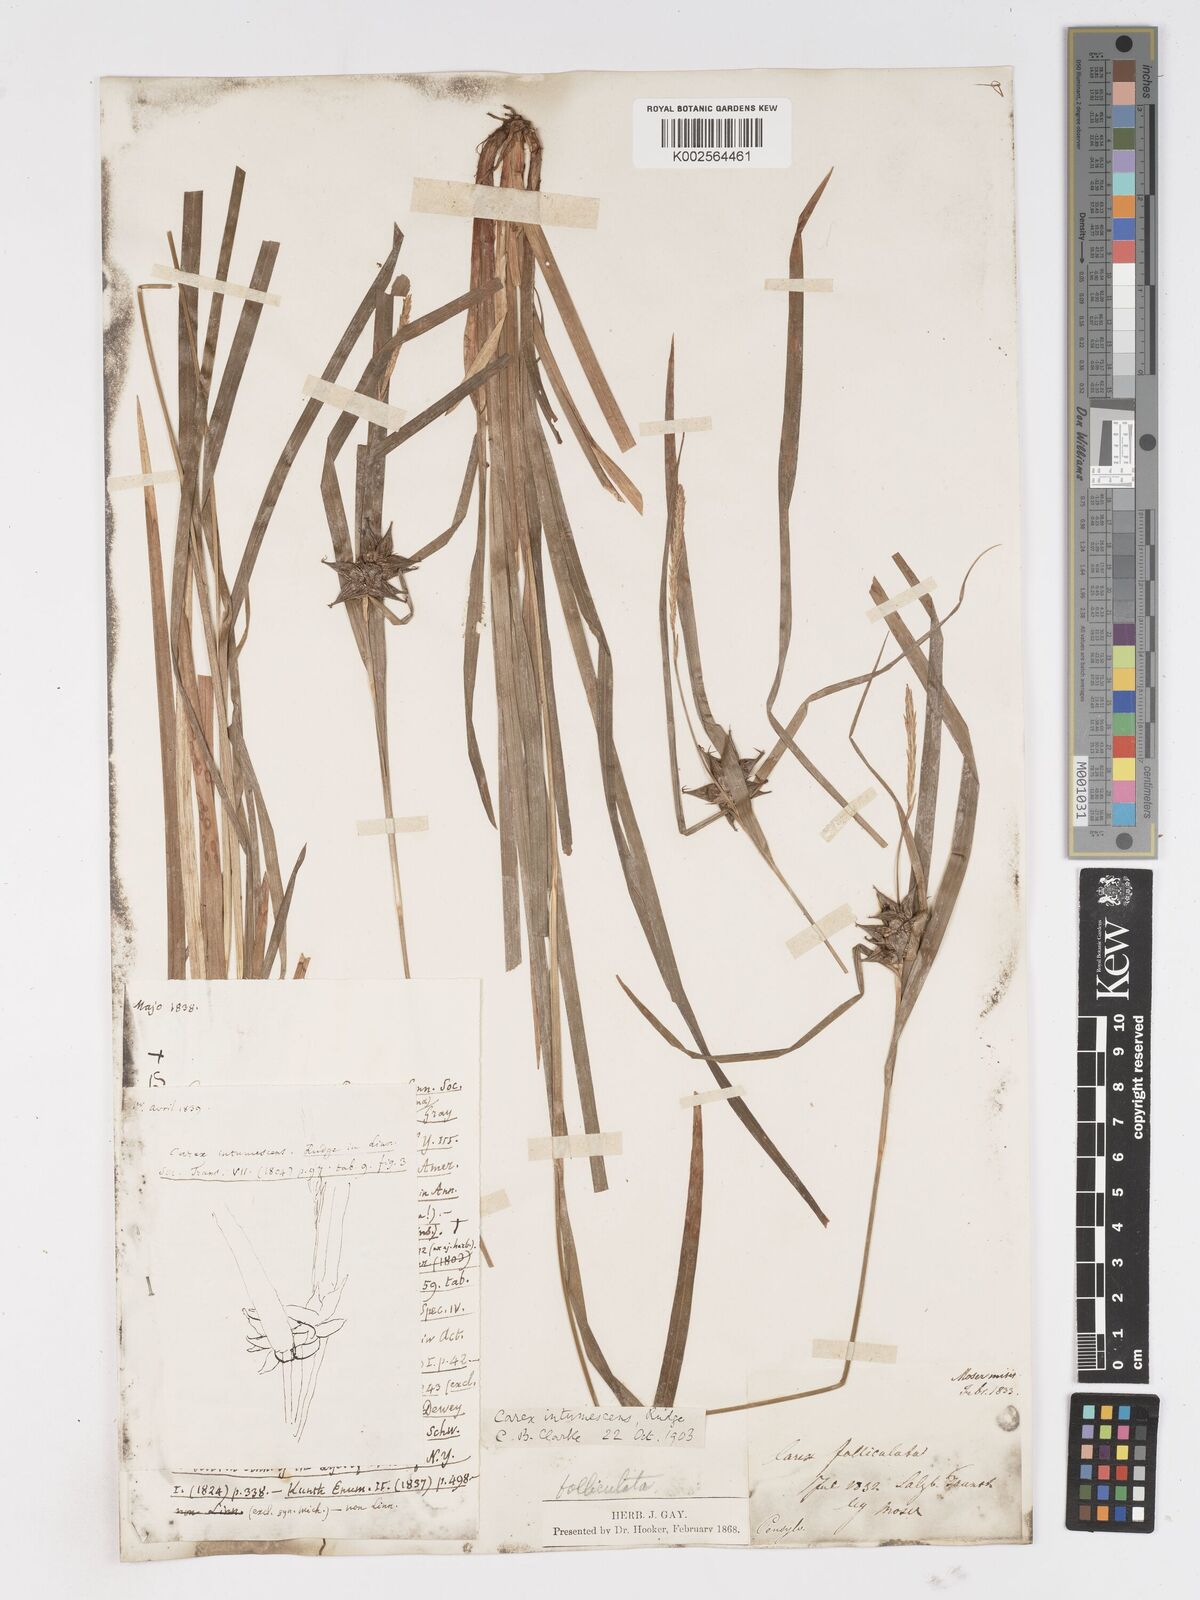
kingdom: Plantae
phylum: Tracheophyta
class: Liliopsida
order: Poales
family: Cyperaceae
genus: Carex
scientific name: Carex intumescens
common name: Greater bladder sedge
